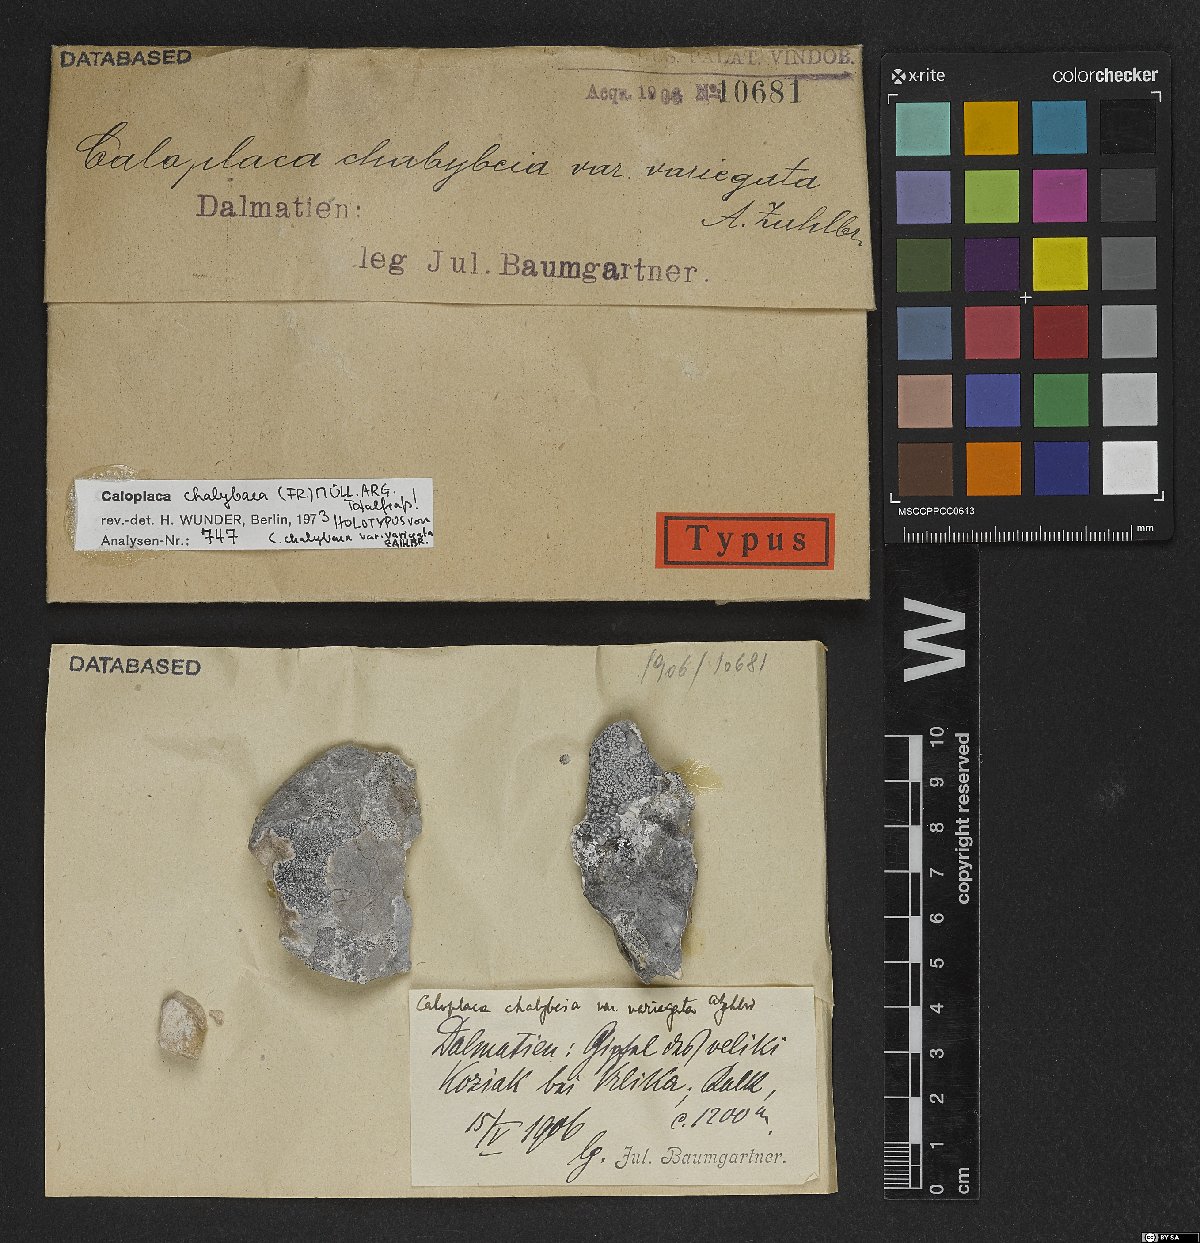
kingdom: Fungi
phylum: Ascomycota
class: Lecanoromycetes
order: Teloschistales
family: Teloschistaceae
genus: Pyrenodesmia
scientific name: Pyrenodesmia chalybaea
